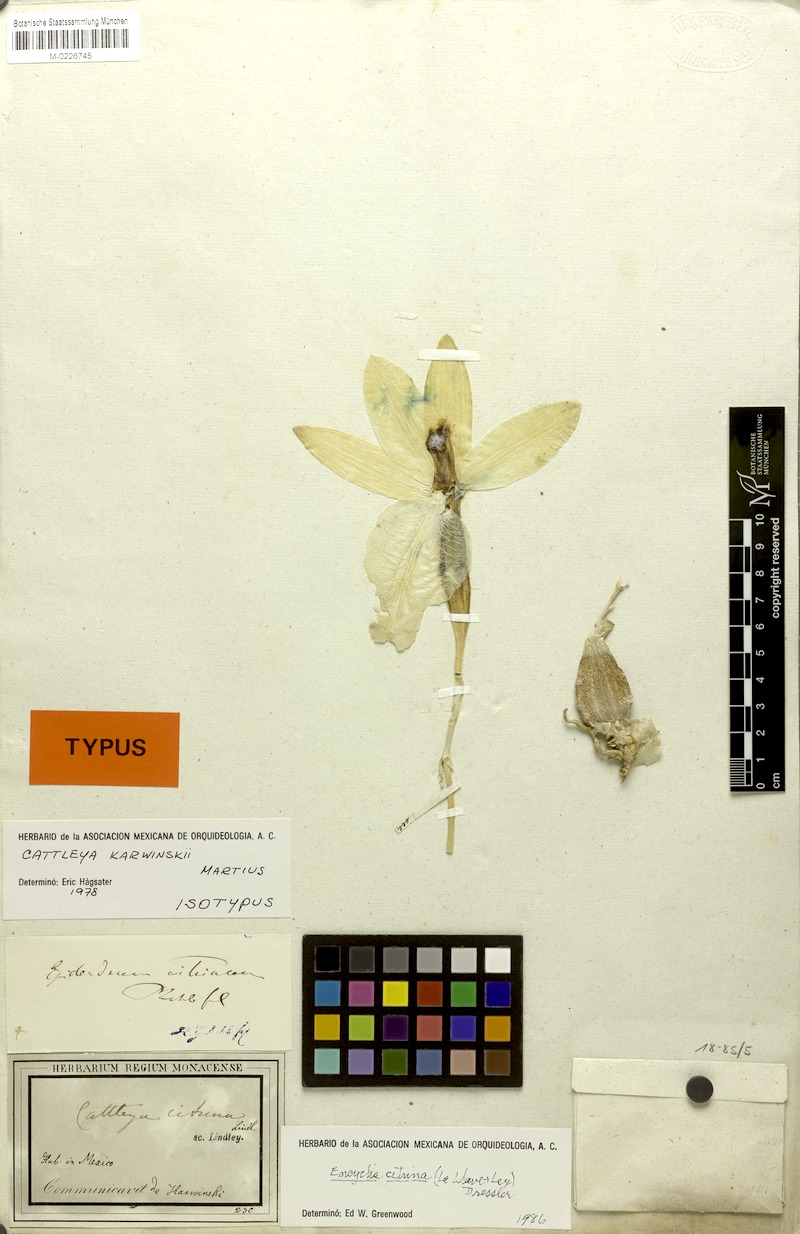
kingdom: Plantae
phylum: Tracheophyta
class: Liliopsida
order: Asparagales
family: Orchidaceae
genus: Prosthechea
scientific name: Prosthechea karwinskii
